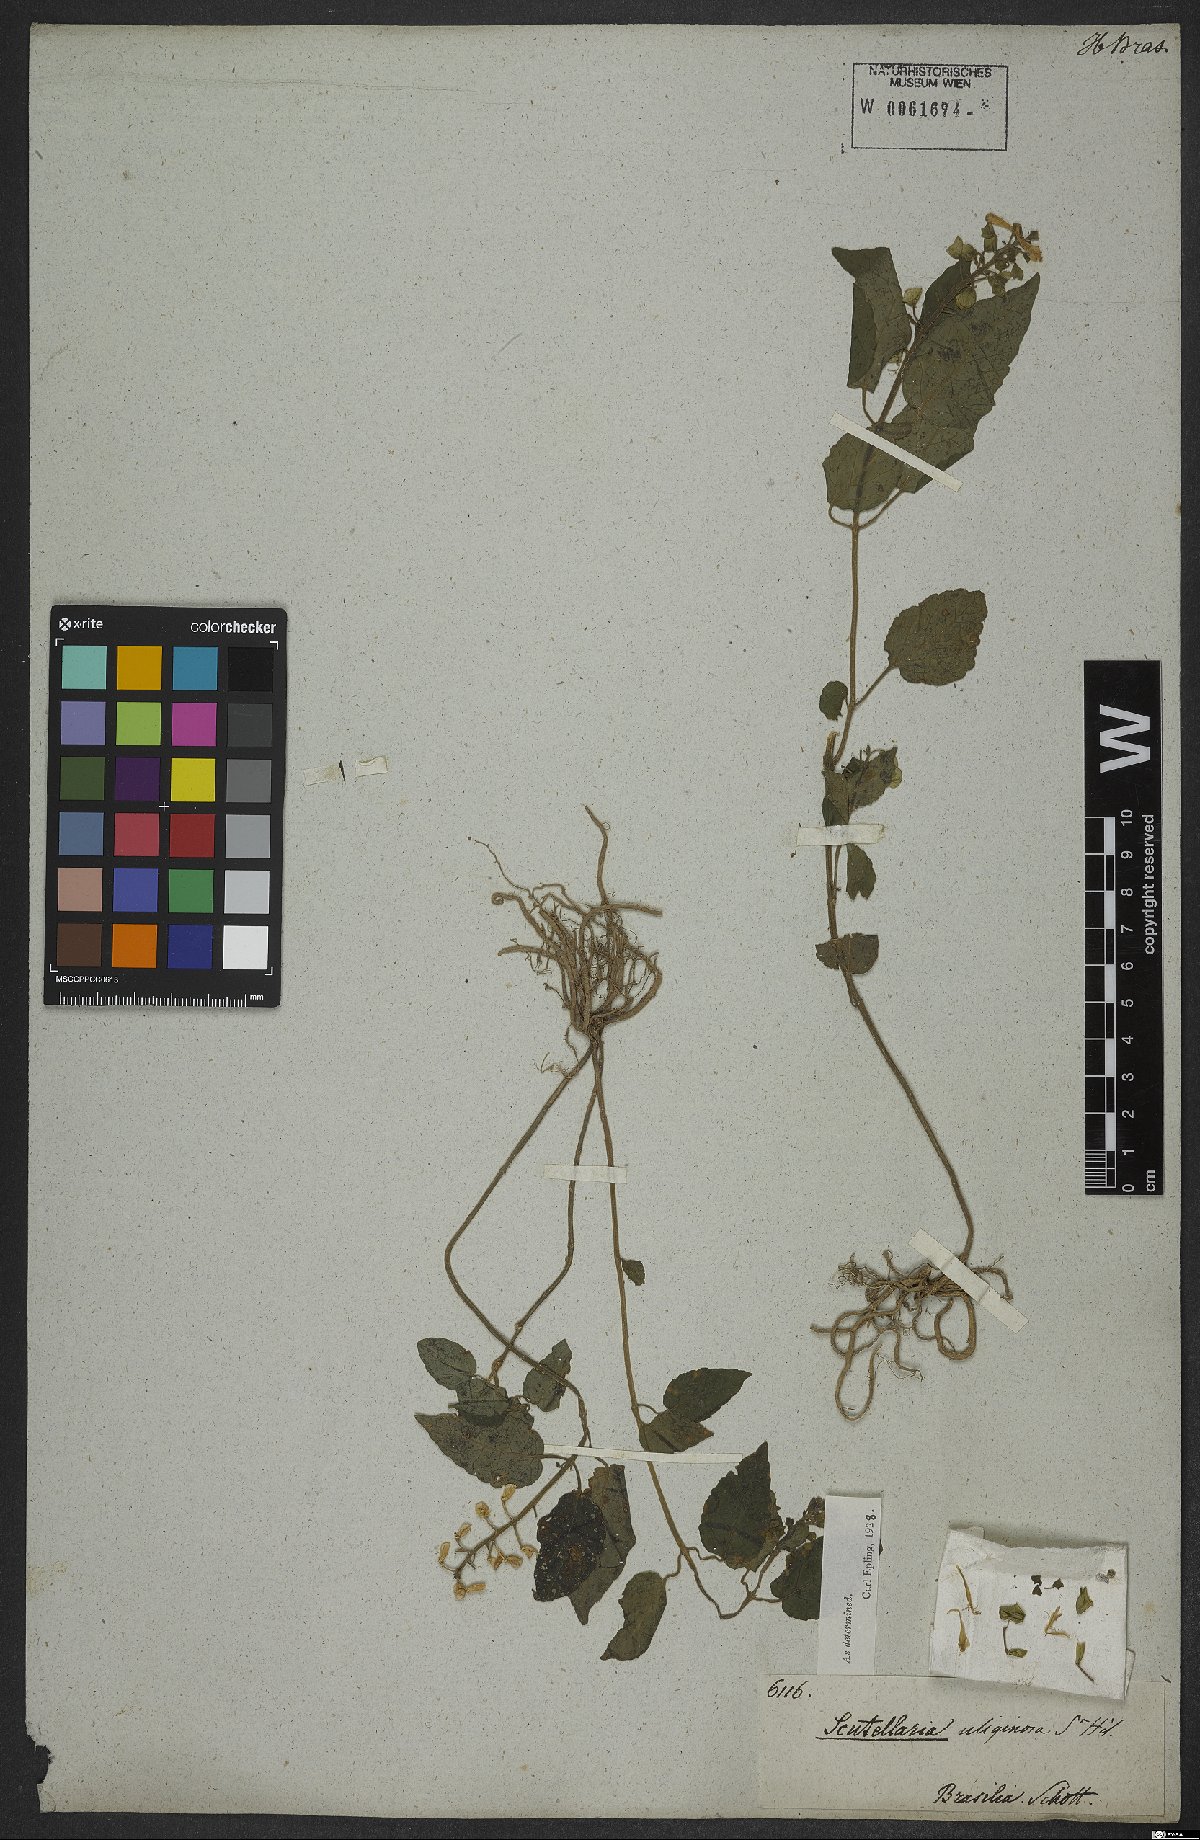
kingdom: Plantae
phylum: Tracheophyta
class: Magnoliopsida
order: Lamiales
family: Lamiaceae
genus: Scutellaria
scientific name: Scutellaria uliginosa
